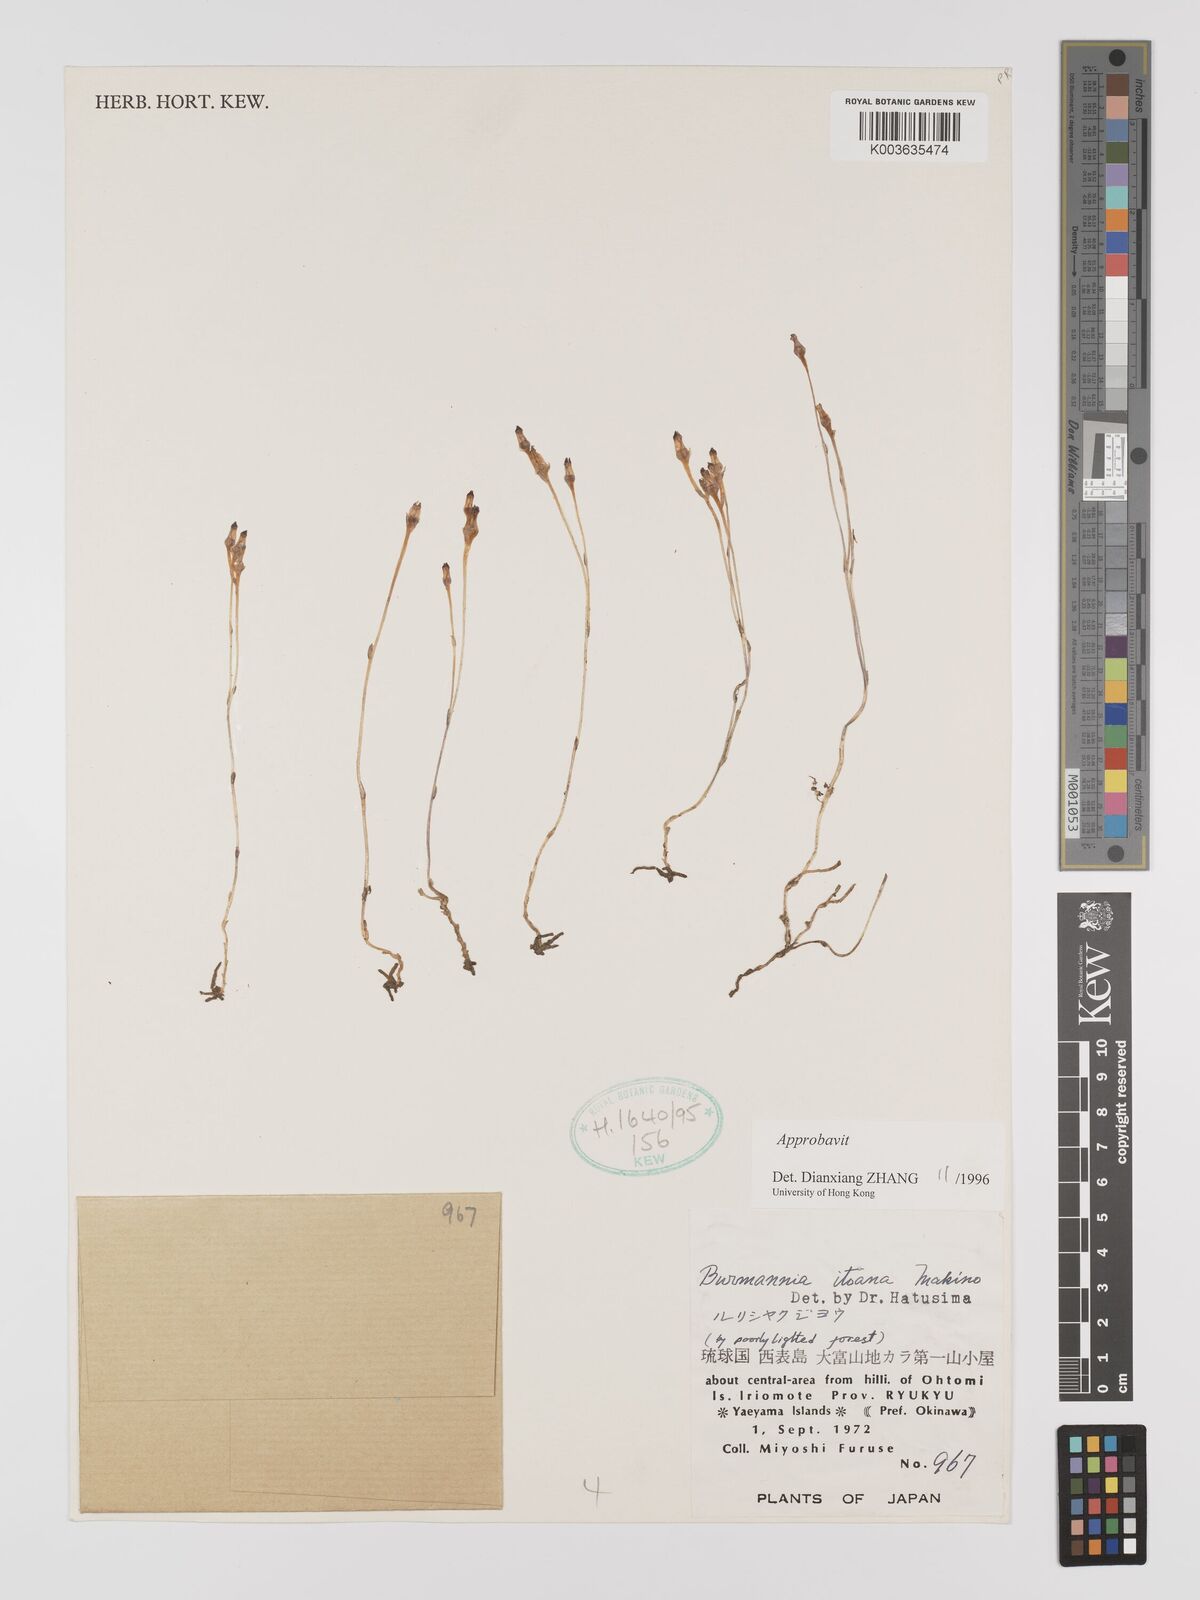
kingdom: Plantae
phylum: Tracheophyta
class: Liliopsida
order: Dioscoreales
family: Burmanniaceae
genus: Burmannia
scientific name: Burmannia itoana
